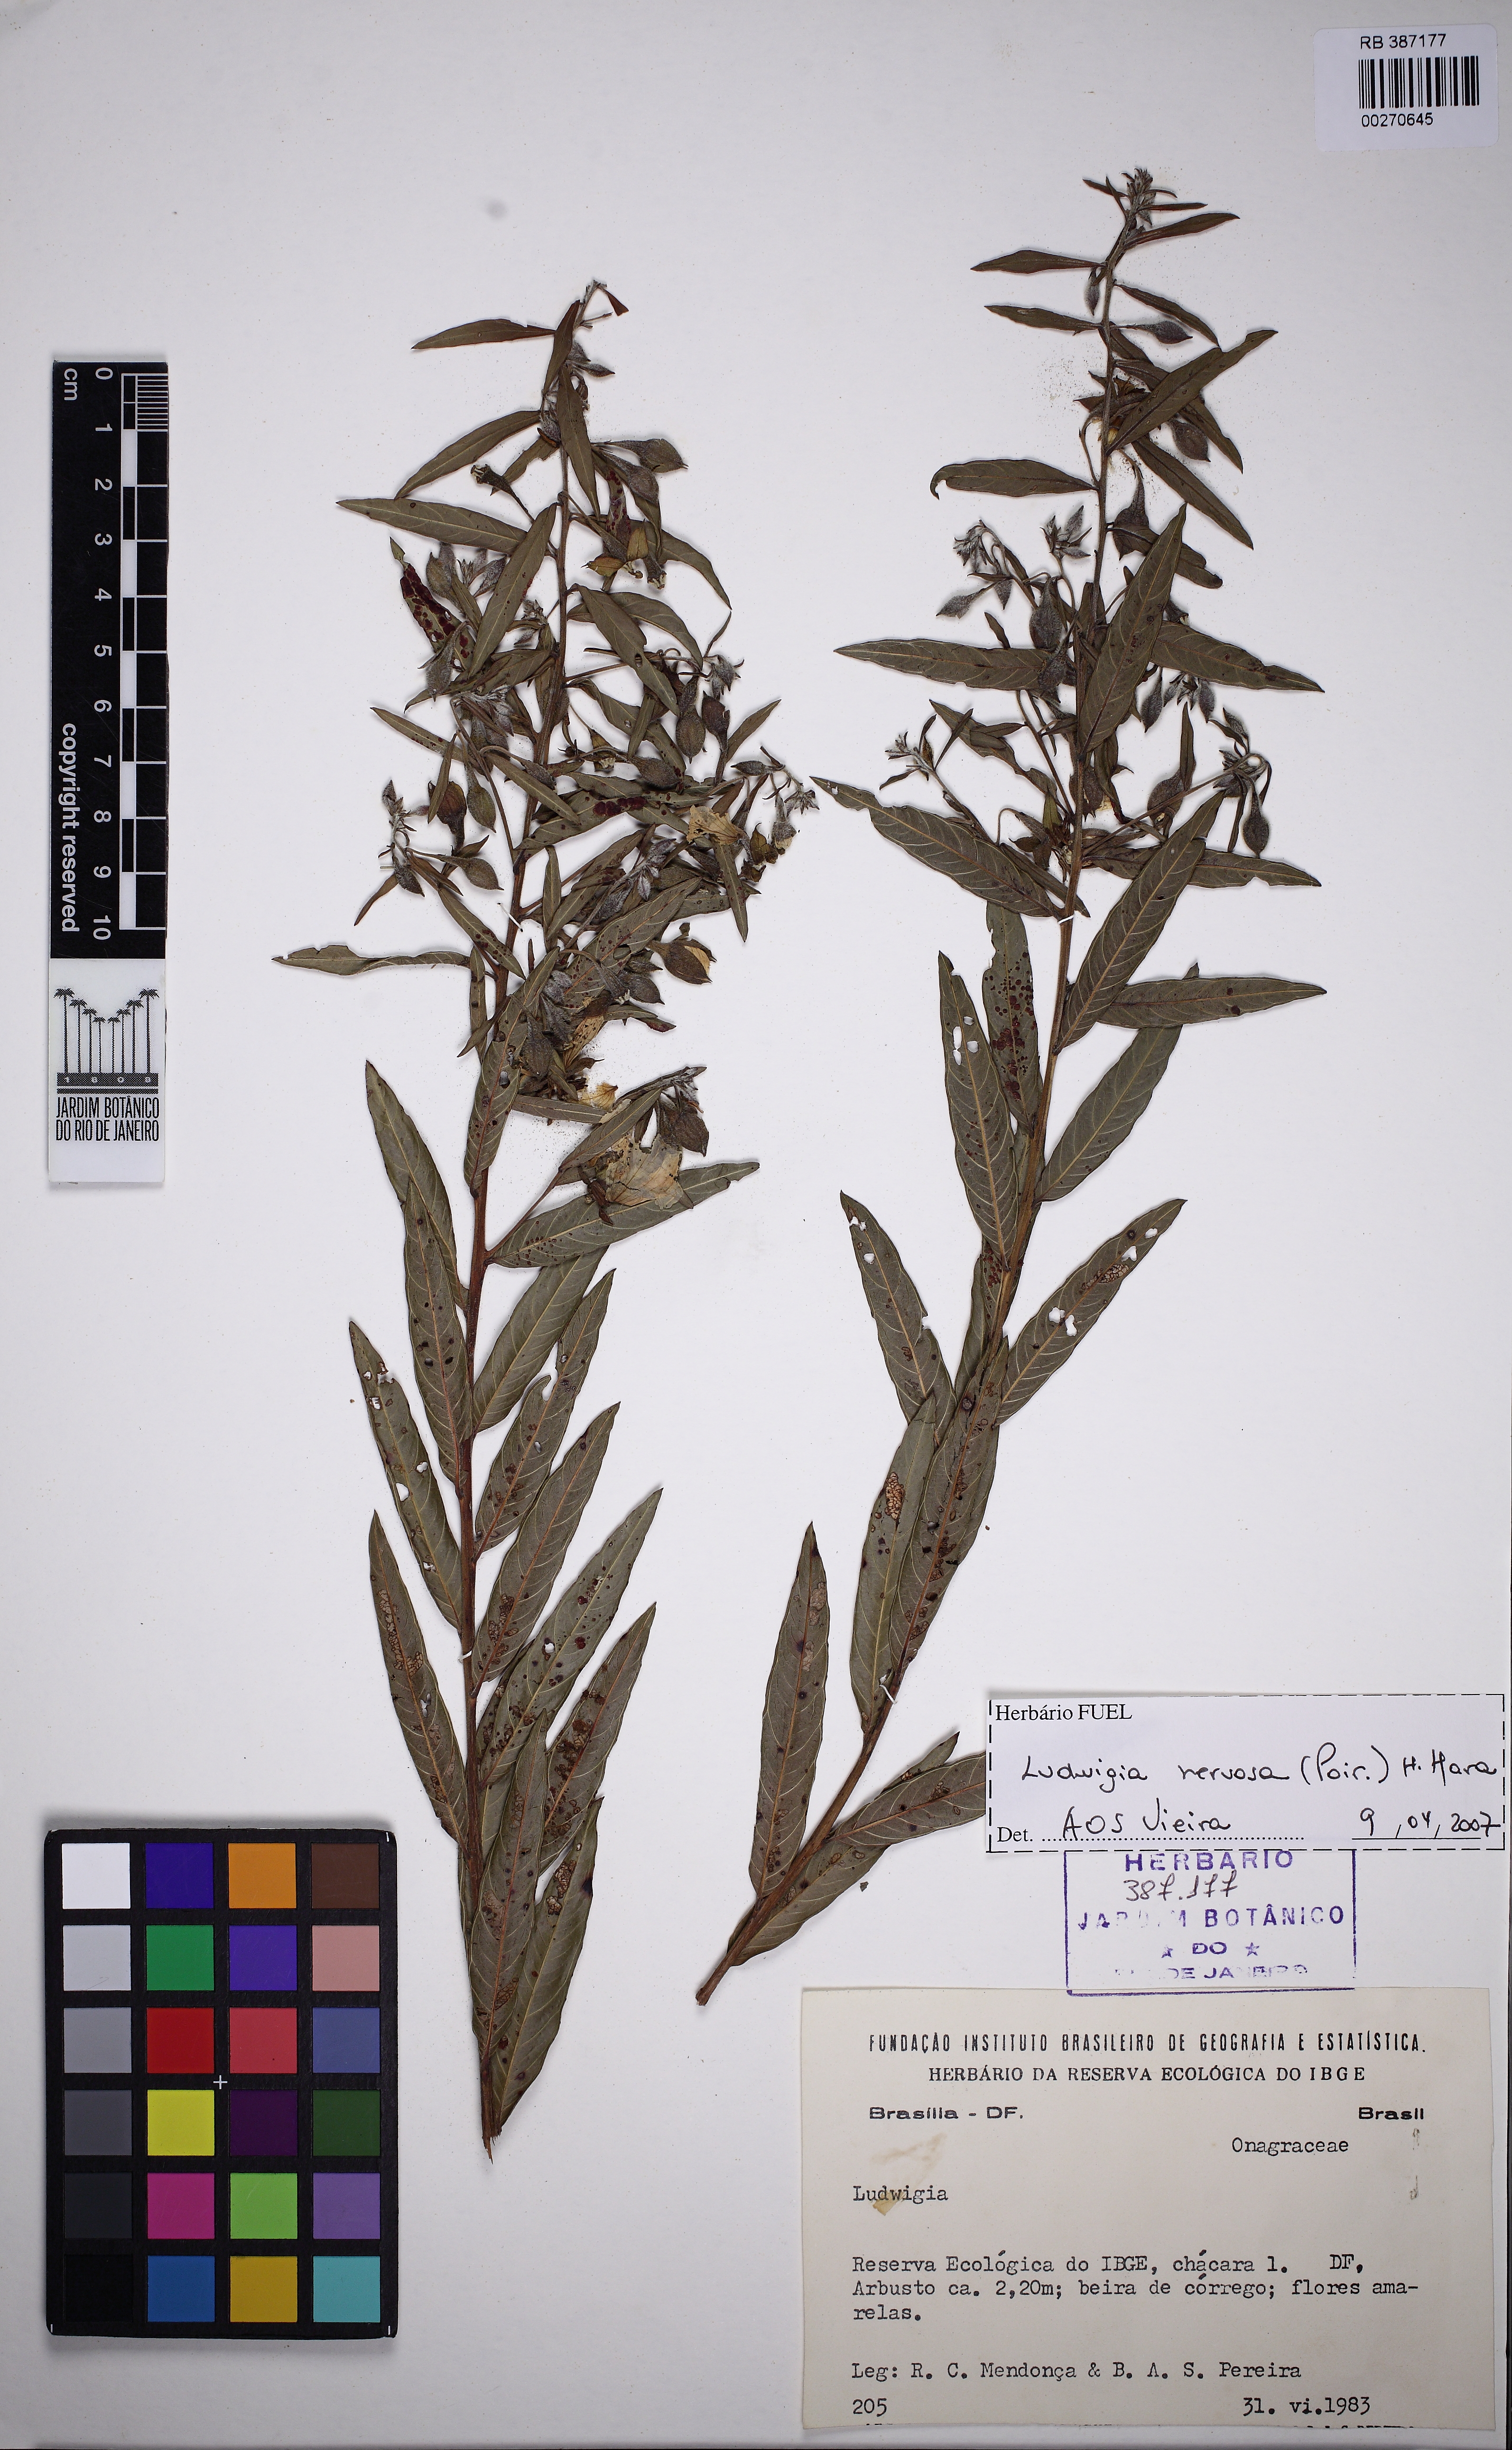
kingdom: Plantae
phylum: Tracheophyta
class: Magnoliopsida
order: Myrtales
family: Onagraceae
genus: Ludwigia
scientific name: Ludwigia nervosa
